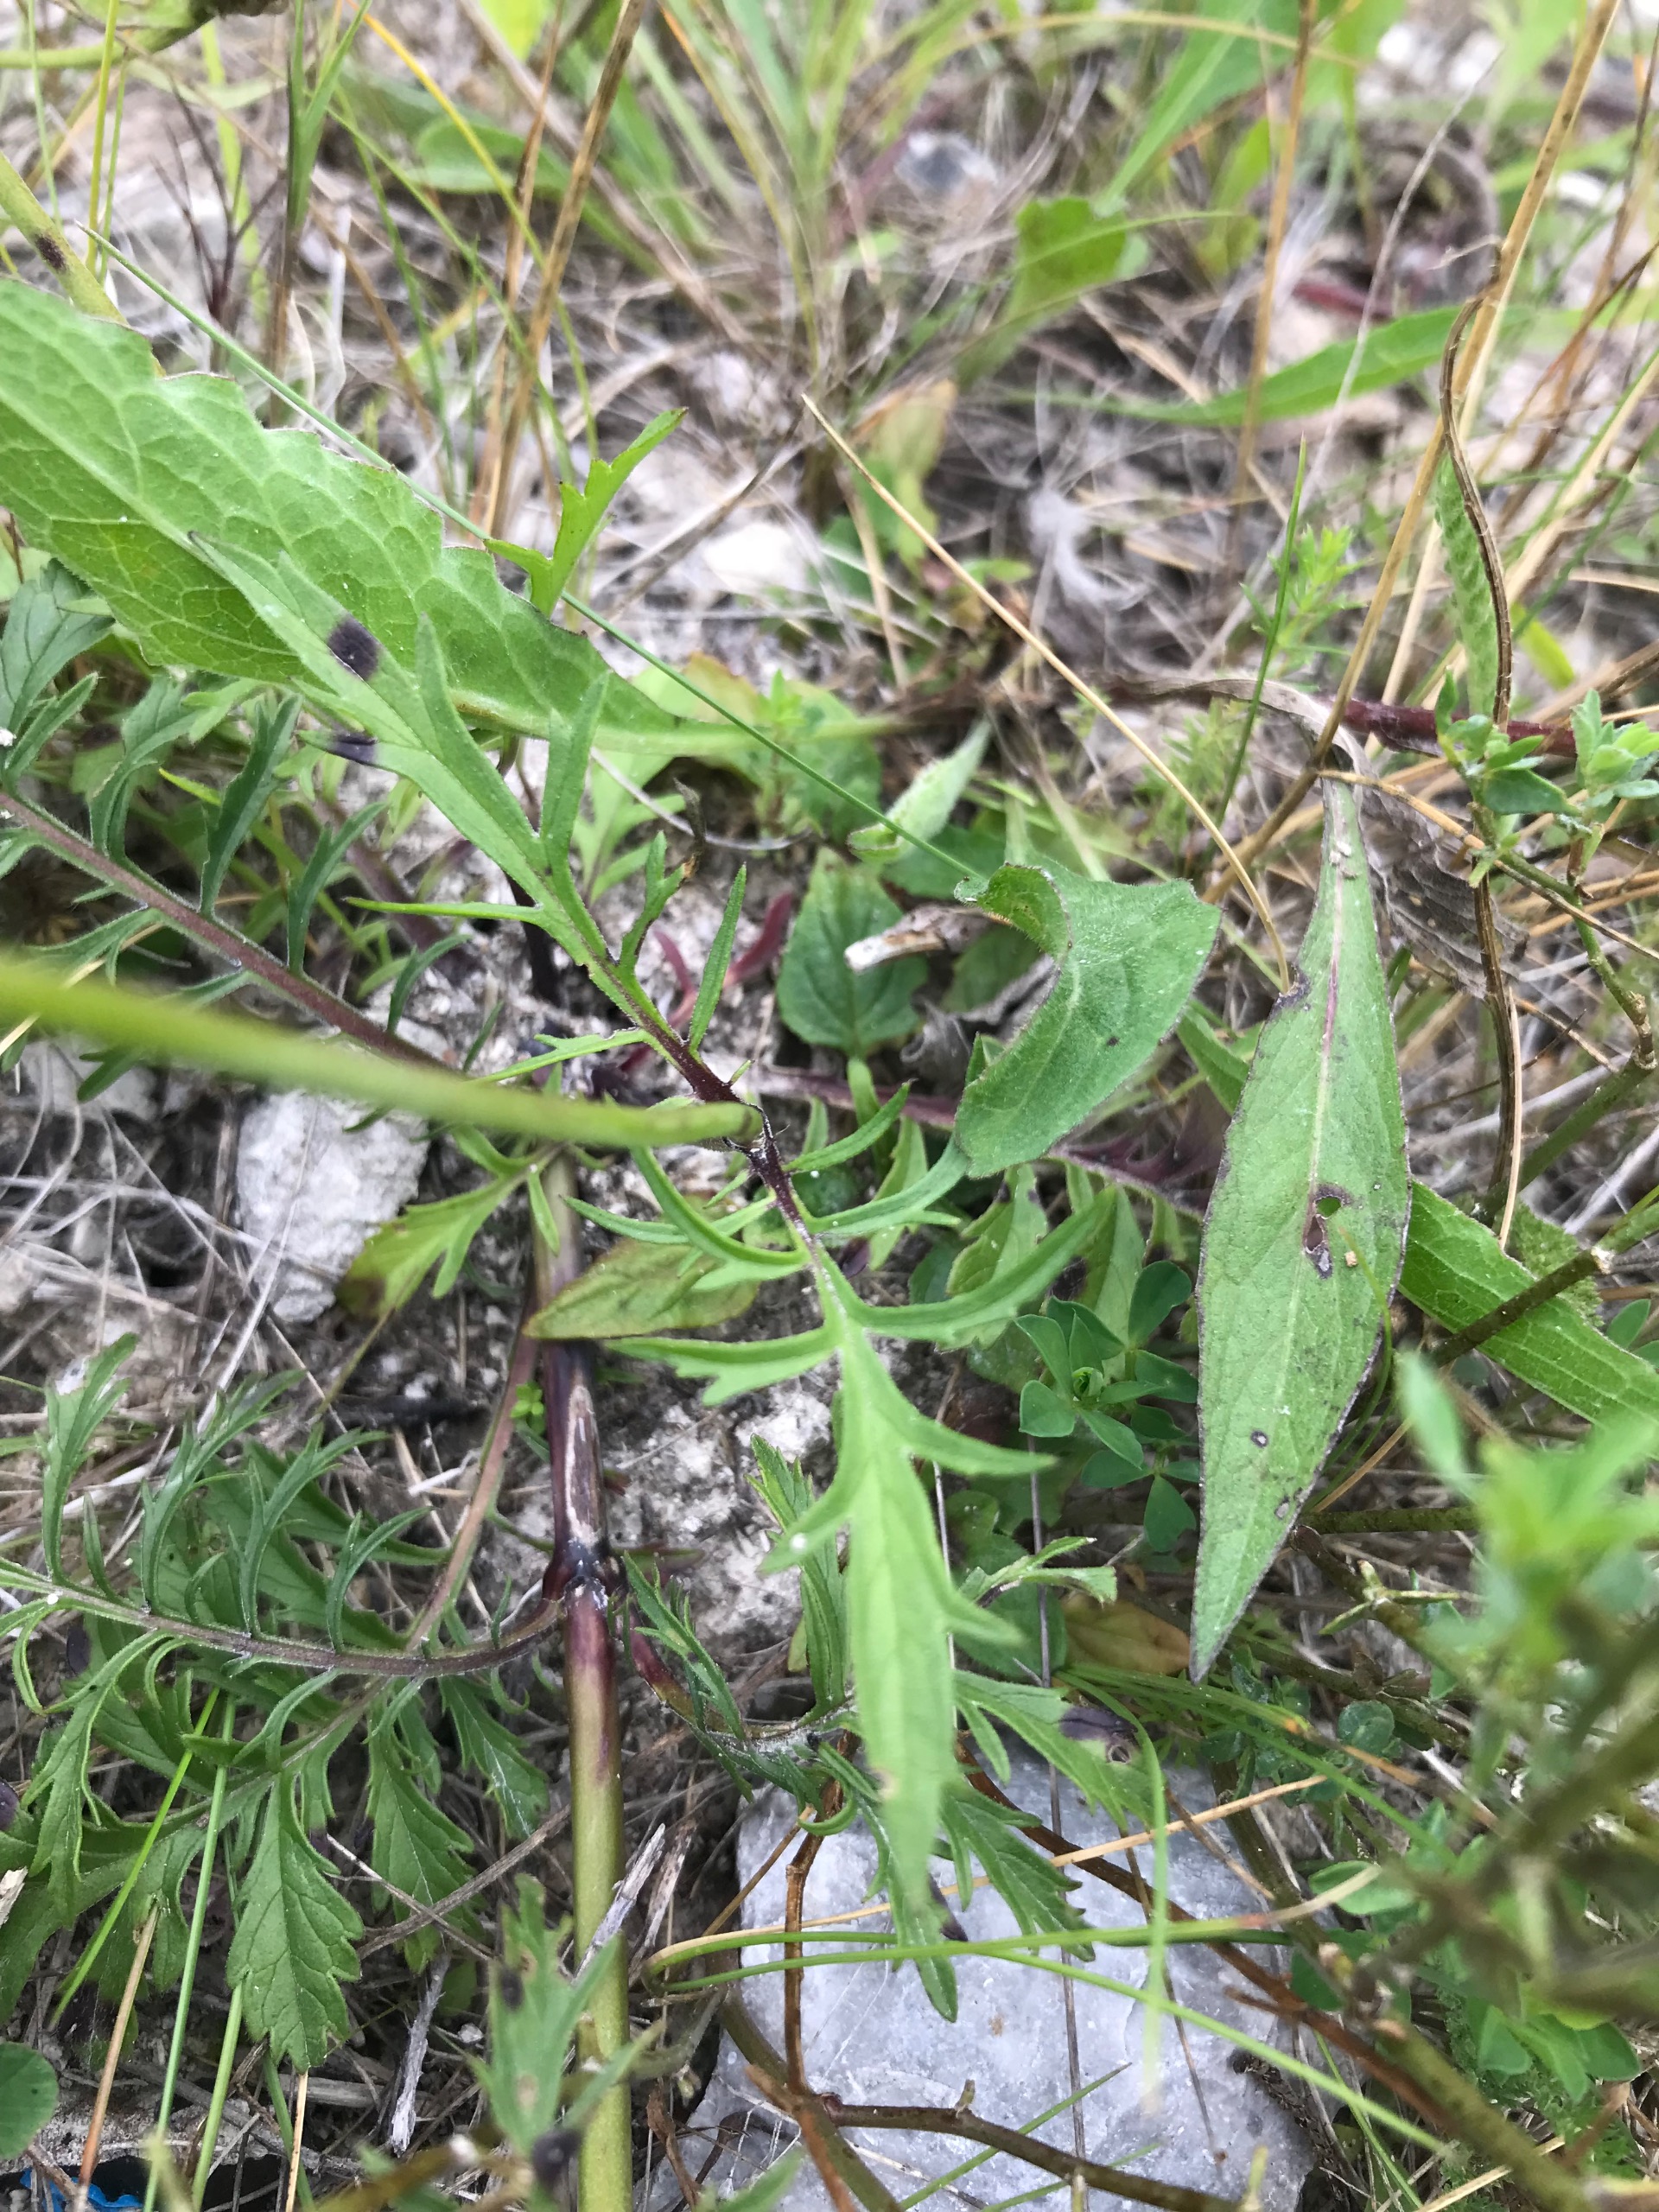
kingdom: Plantae
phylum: Tracheophyta
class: Magnoliopsida
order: Dipsacales
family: Caprifoliaceae
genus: Scabiosa
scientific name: Scabiosa columbaria
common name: Due-skabiose
